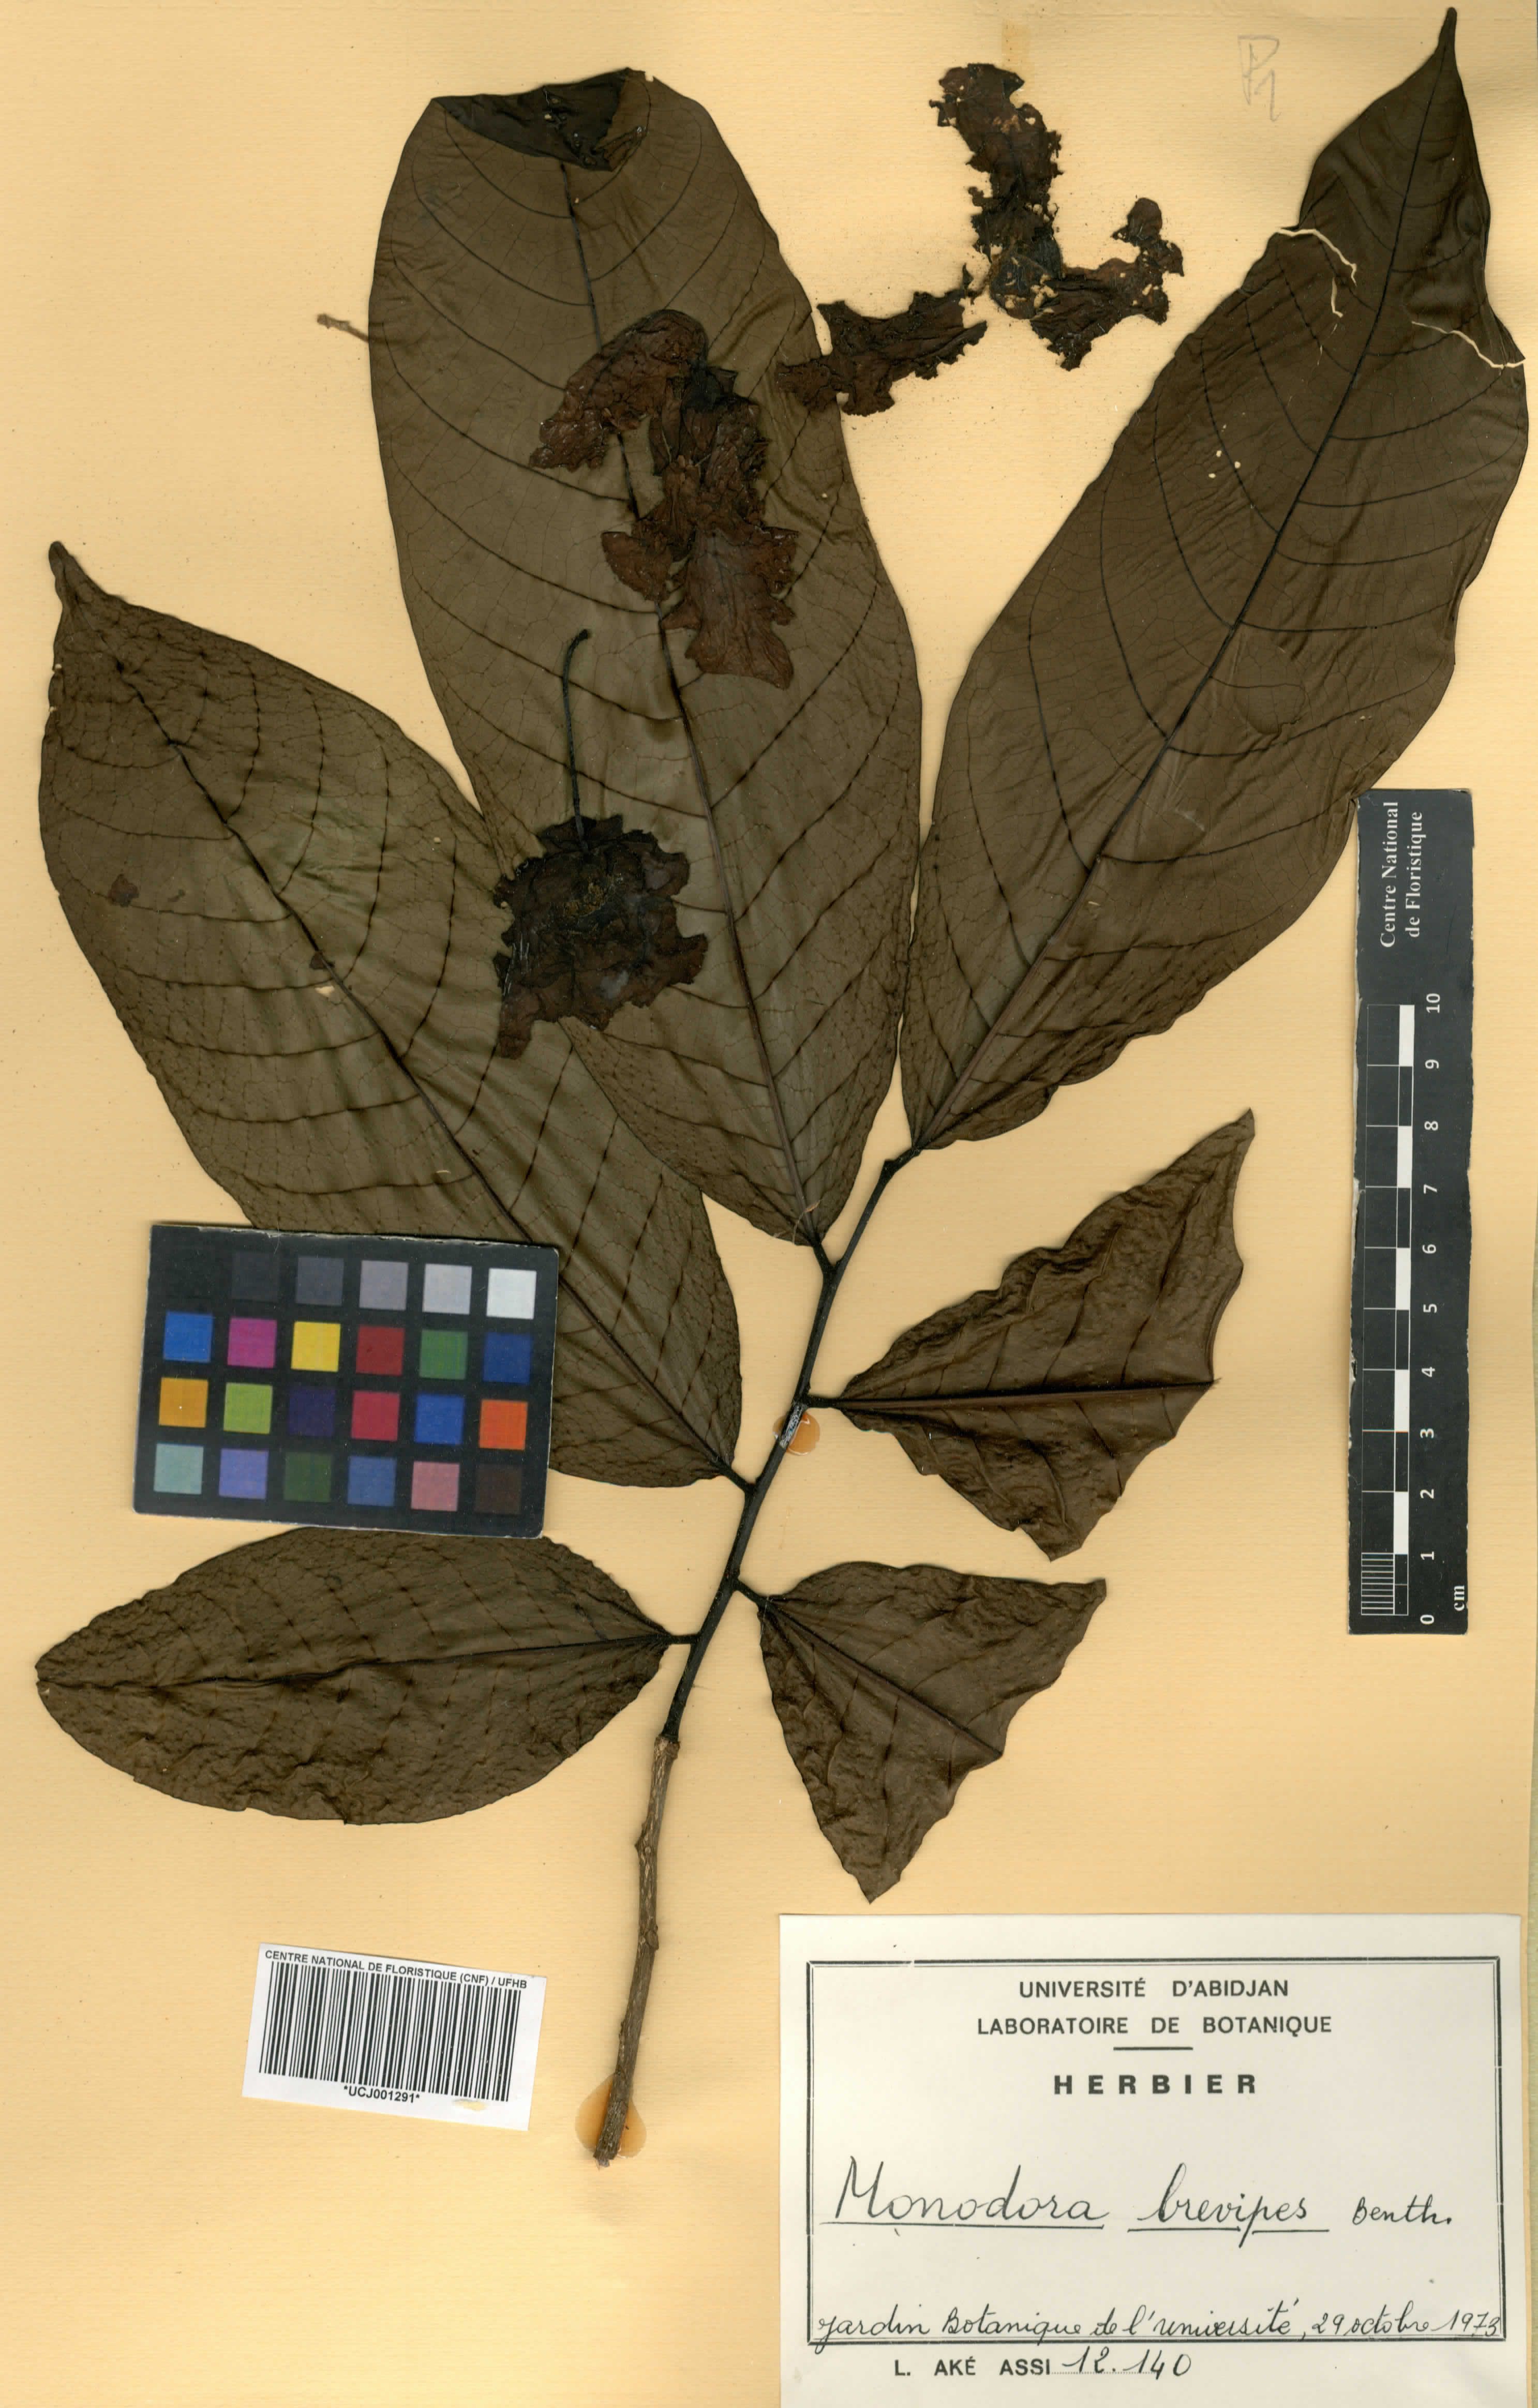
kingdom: Plantae
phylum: Tracheophyta
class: Magnoliopsida
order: Magnoliales
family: Annonaceae
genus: Monodora
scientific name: Monodora undulata
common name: Yellow-flower-nutmeg
